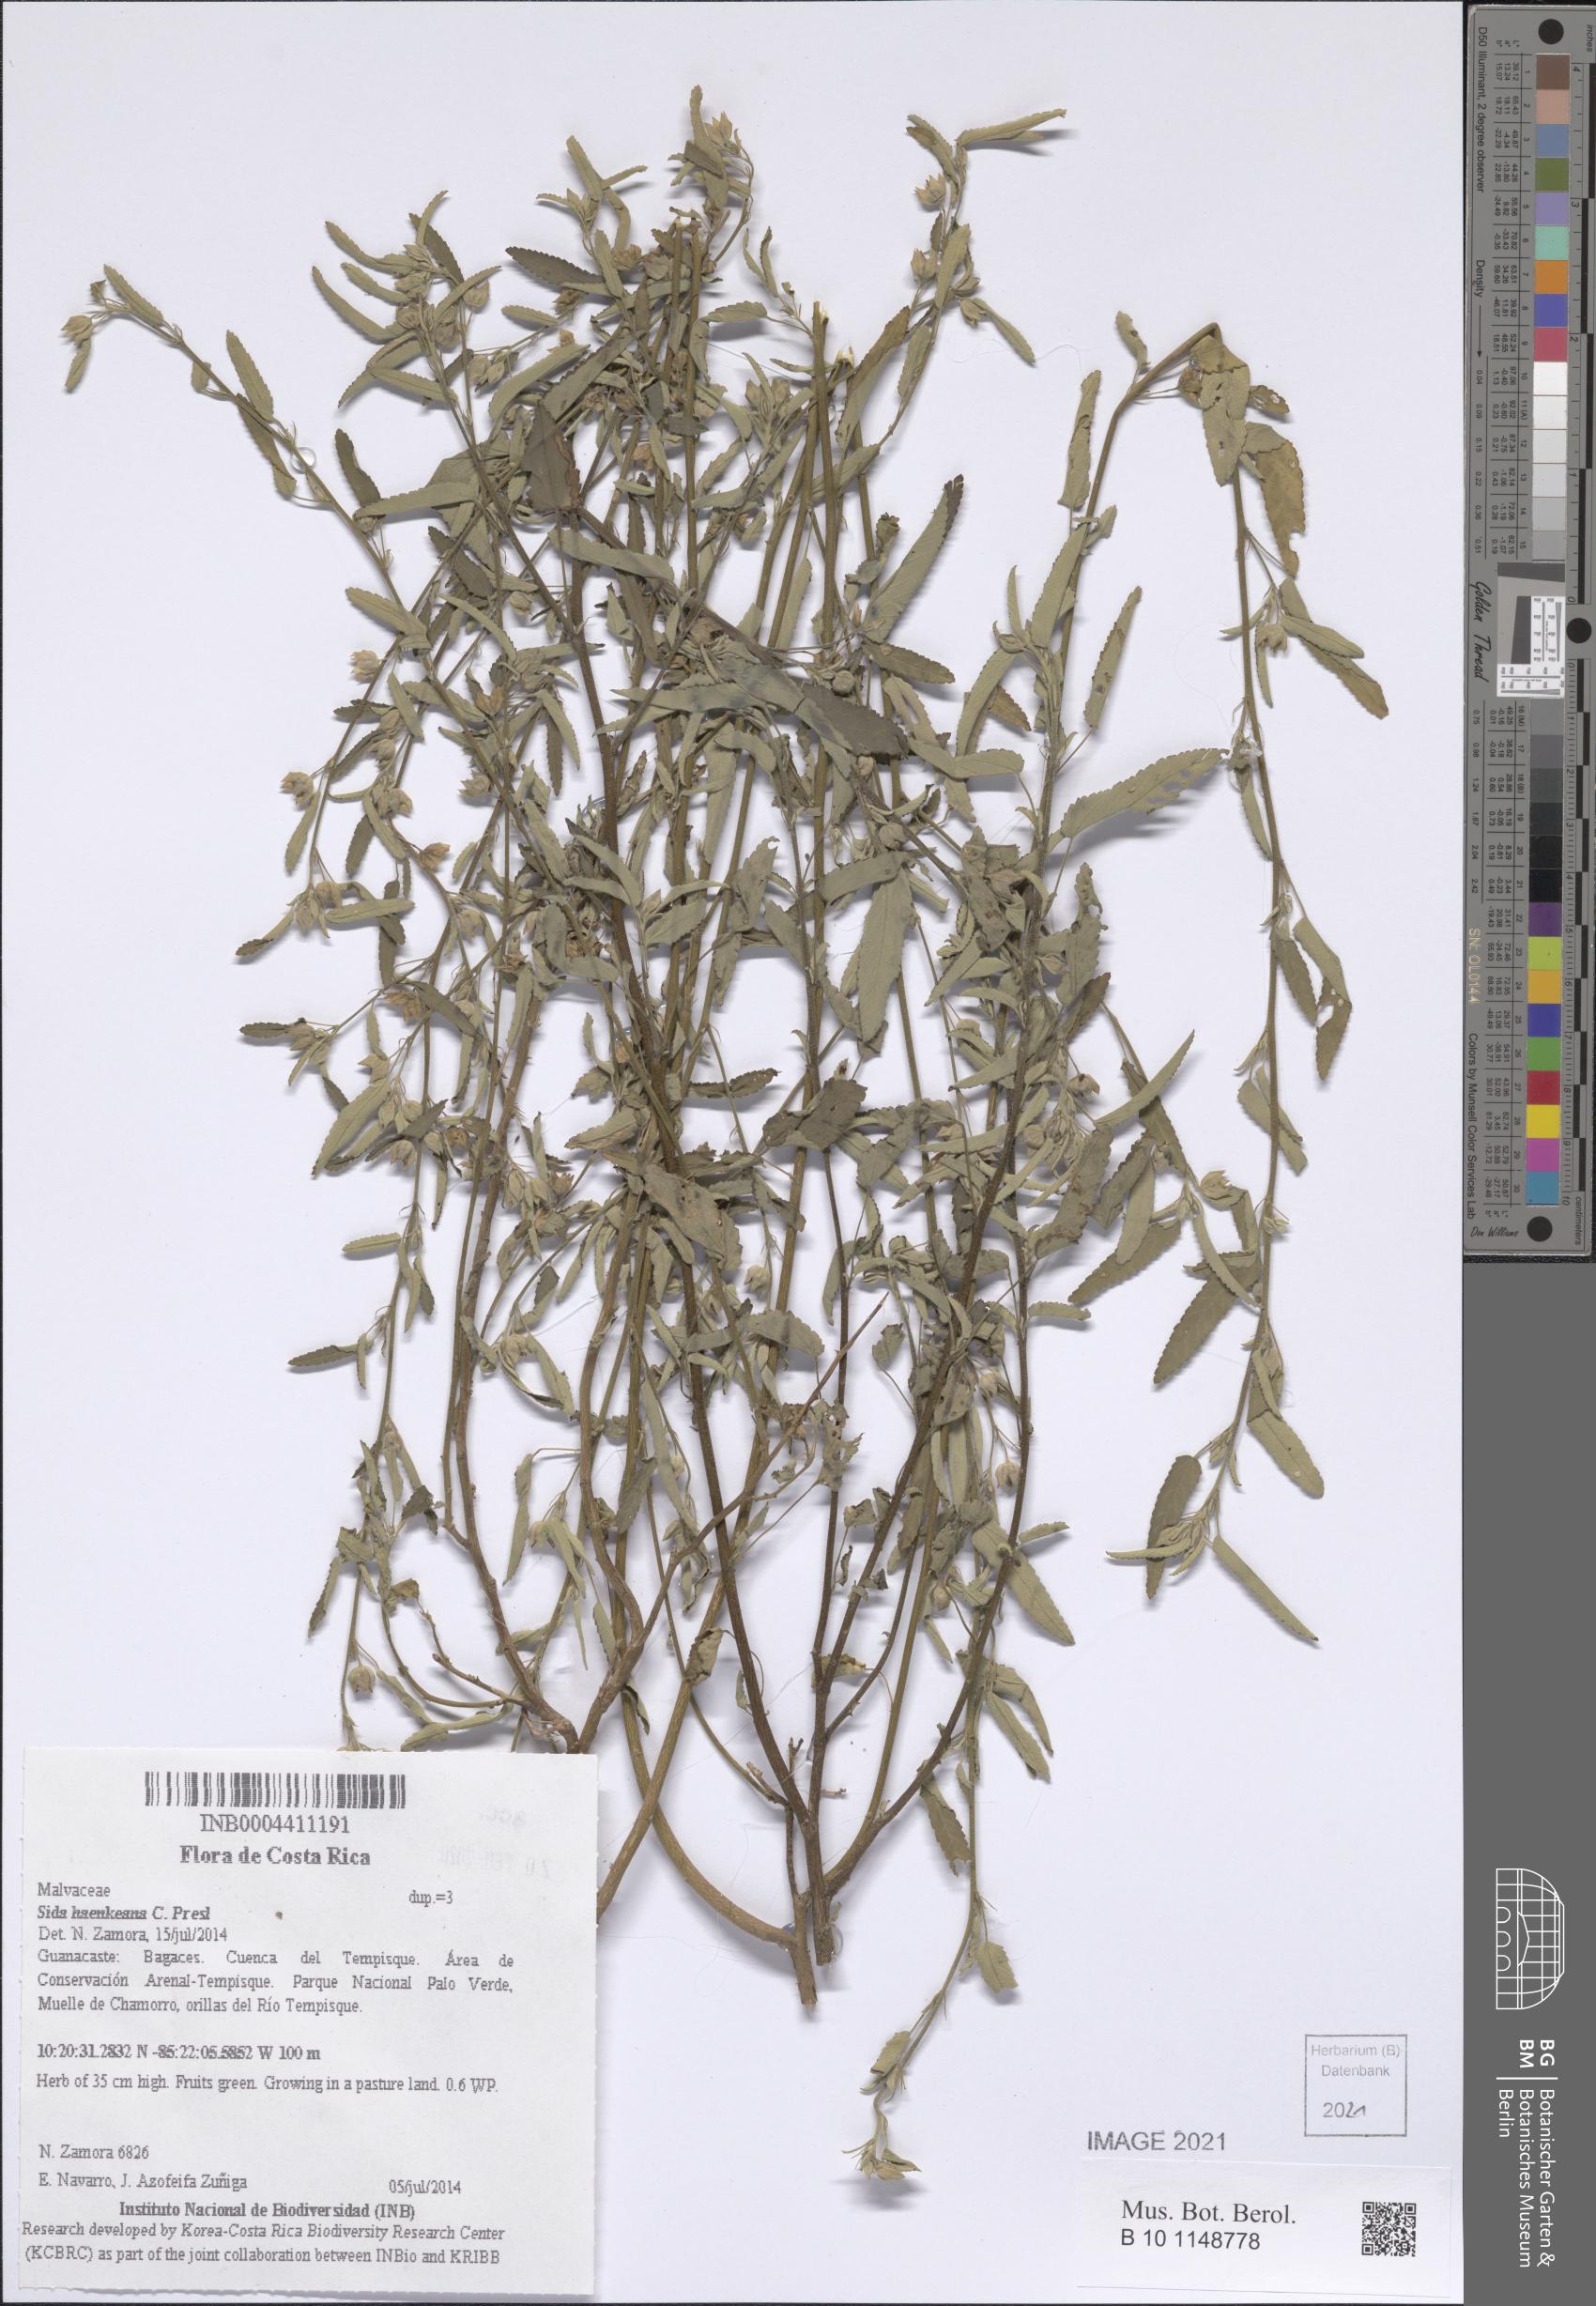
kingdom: Plantae
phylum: Tracheophyta
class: Magnoliopsida
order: Malvales
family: Malvaceae
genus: Sida
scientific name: Sida haenkeana
